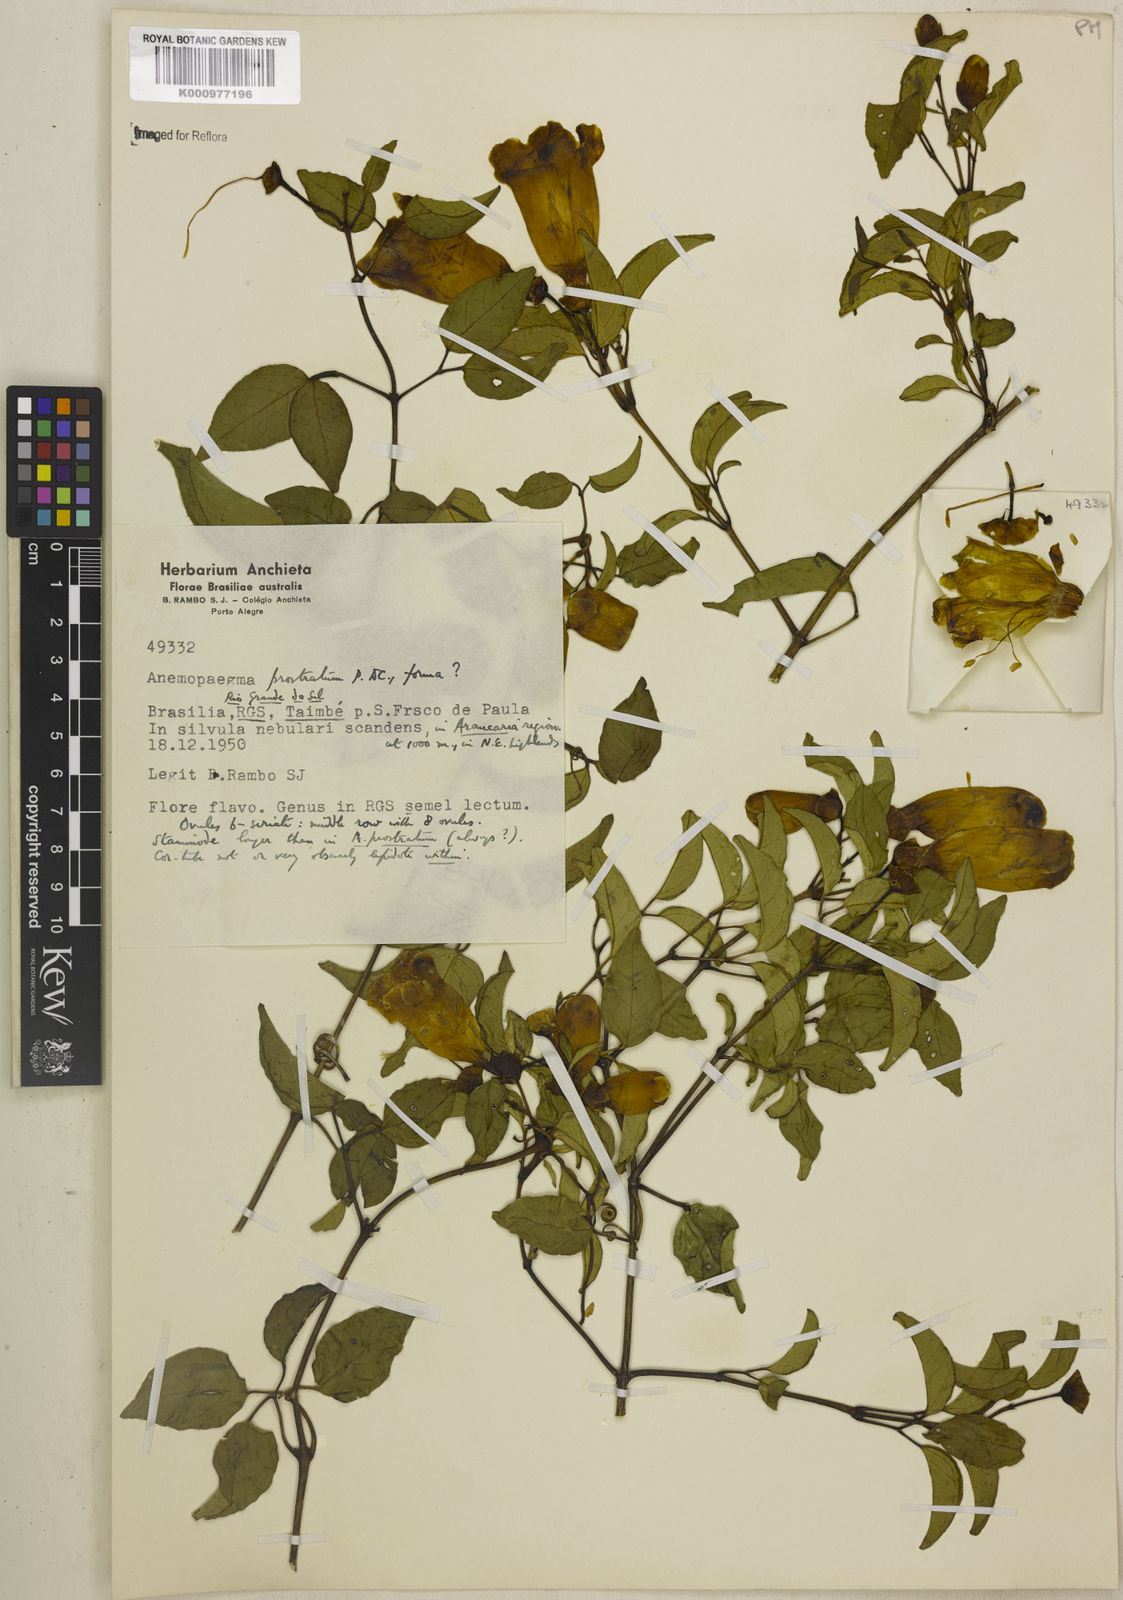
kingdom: Plantae
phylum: Tracheophyta
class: Magnoliopsida
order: Lamiales
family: Bignoniaceae
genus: Anemopaegma
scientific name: Anemopaegma nebulosum
